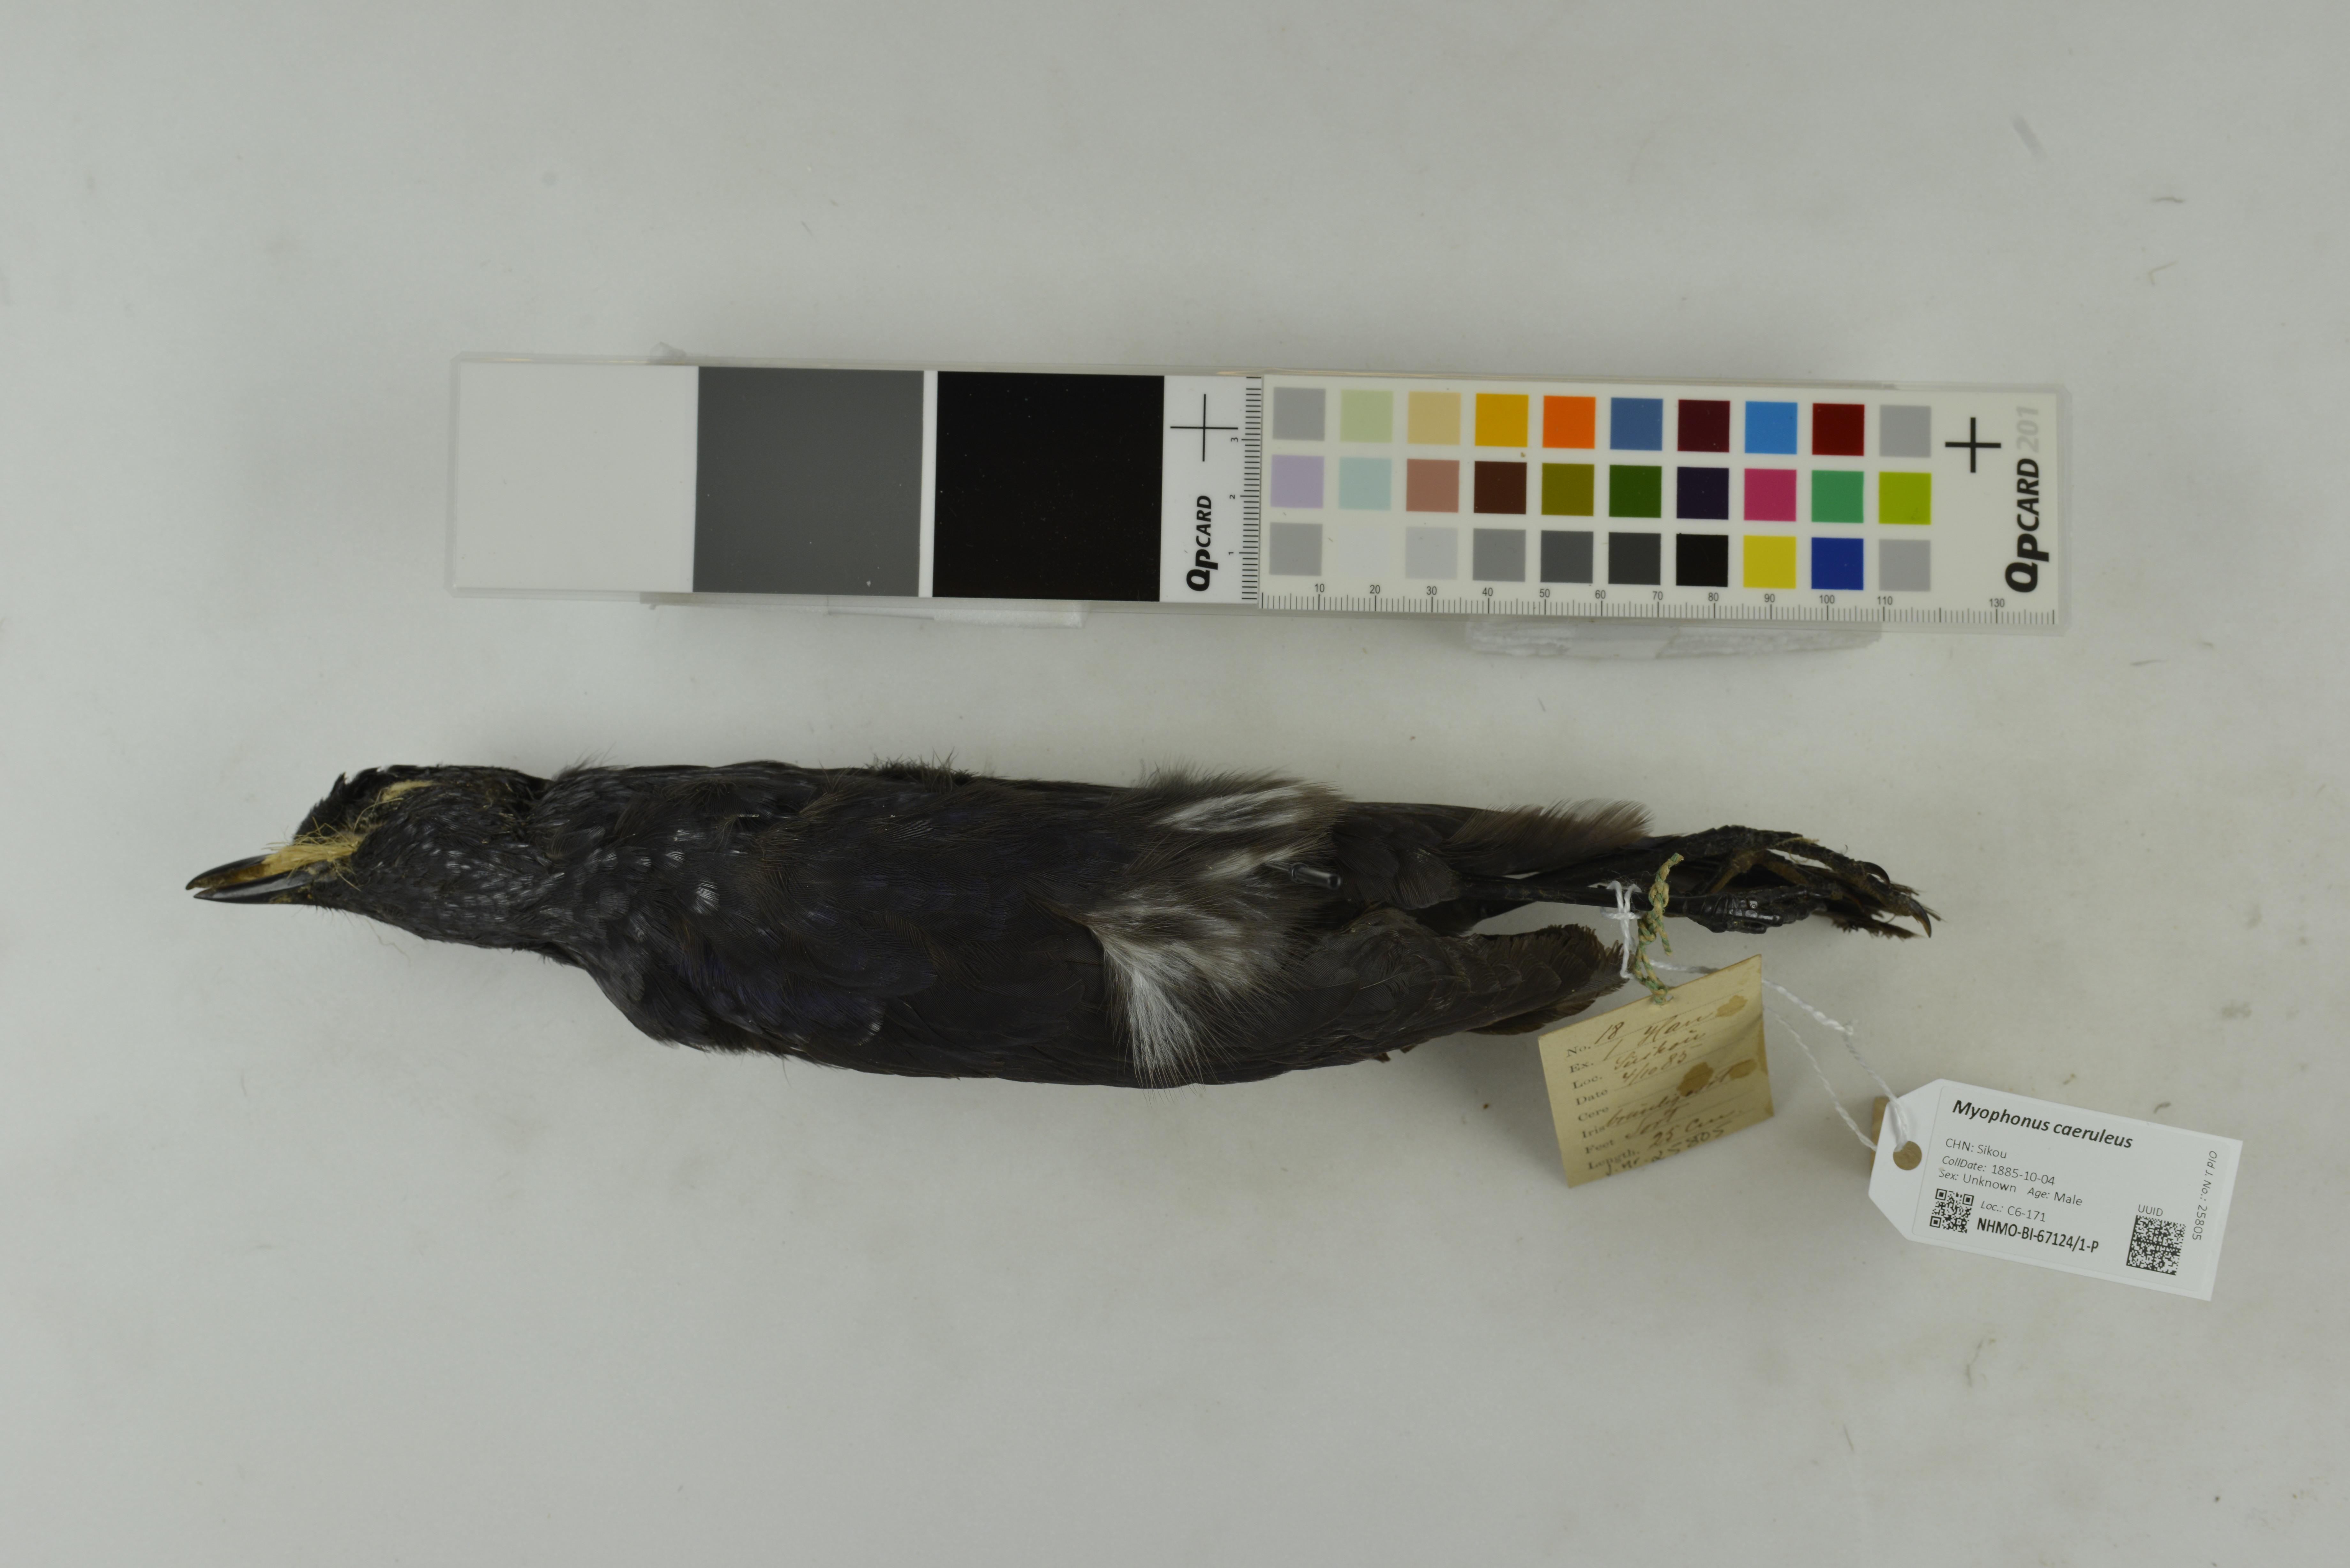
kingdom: Animalia
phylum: Chordata
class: Aves
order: Passeriformes
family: Muscicapidae
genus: Myophonus
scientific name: Myophonus caeruleus
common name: Blue whistling-thrush
